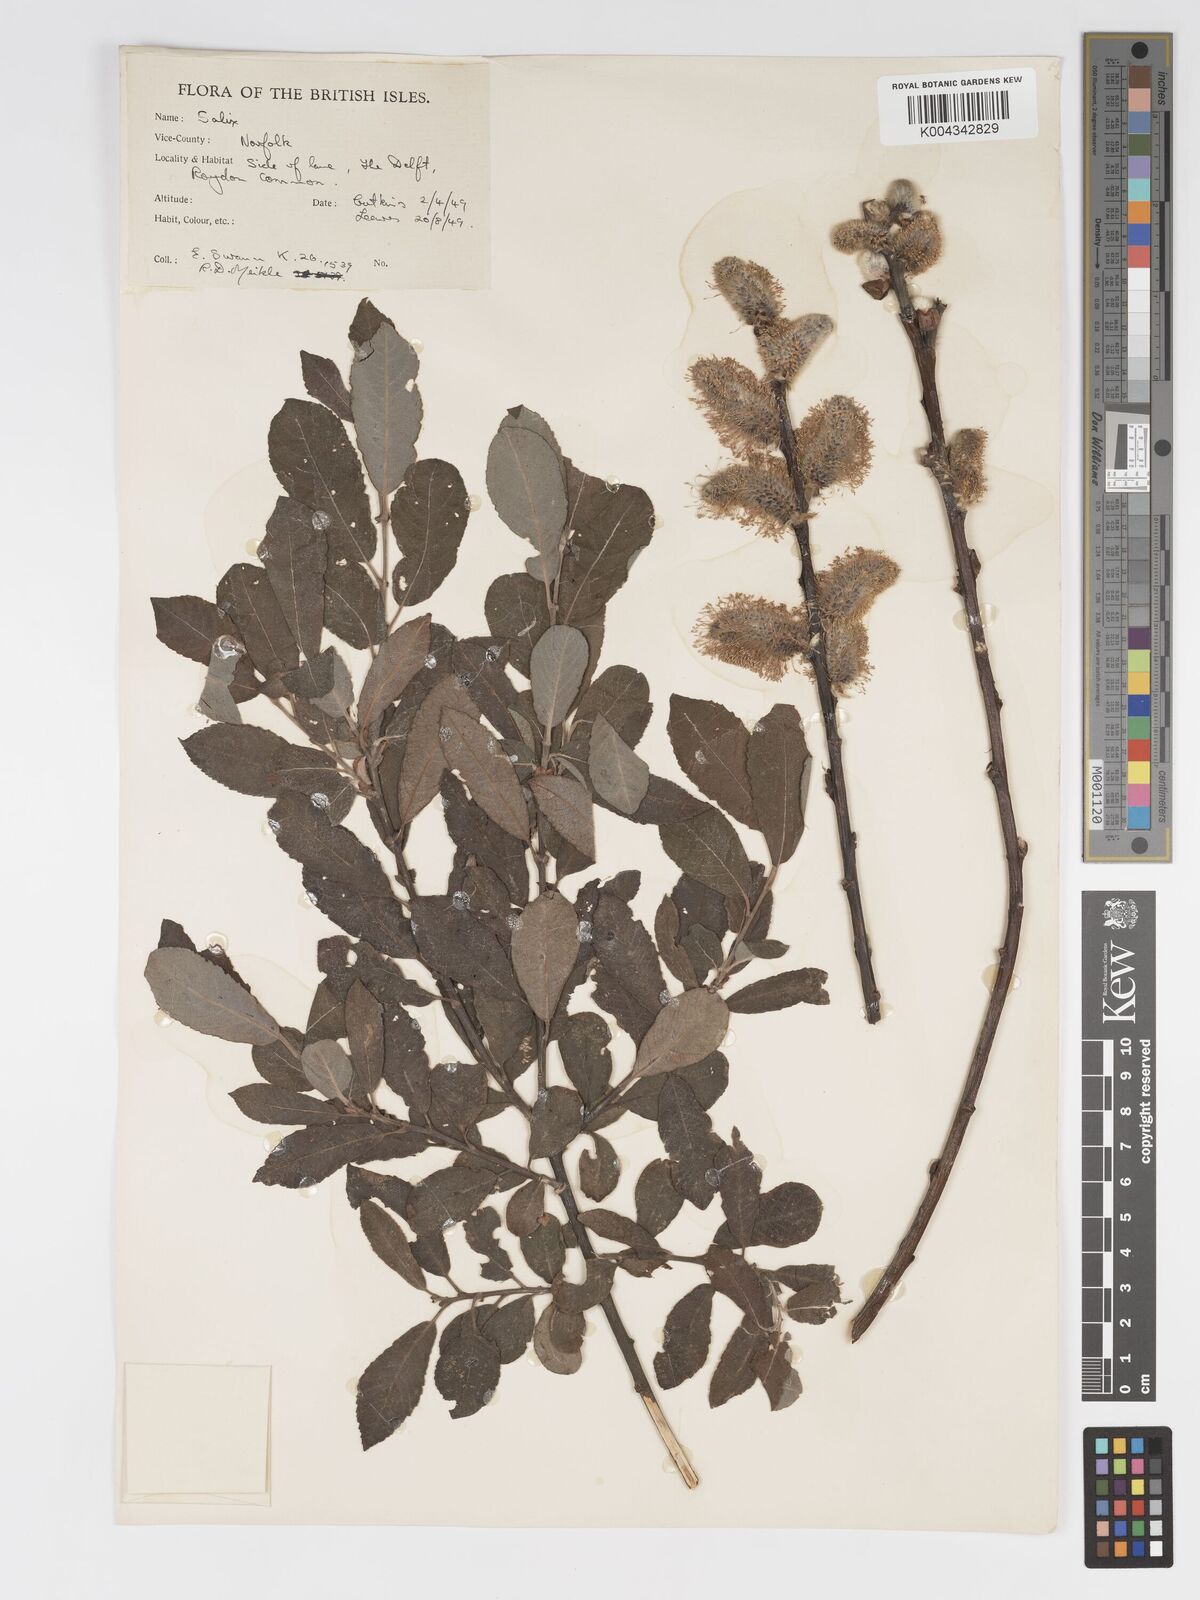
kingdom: Plantae
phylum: Tracheophyta
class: Magnoliopsida
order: Malpighiales
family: Salicaceae
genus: Salix
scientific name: Salix atrocinerea
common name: Rusty willow
